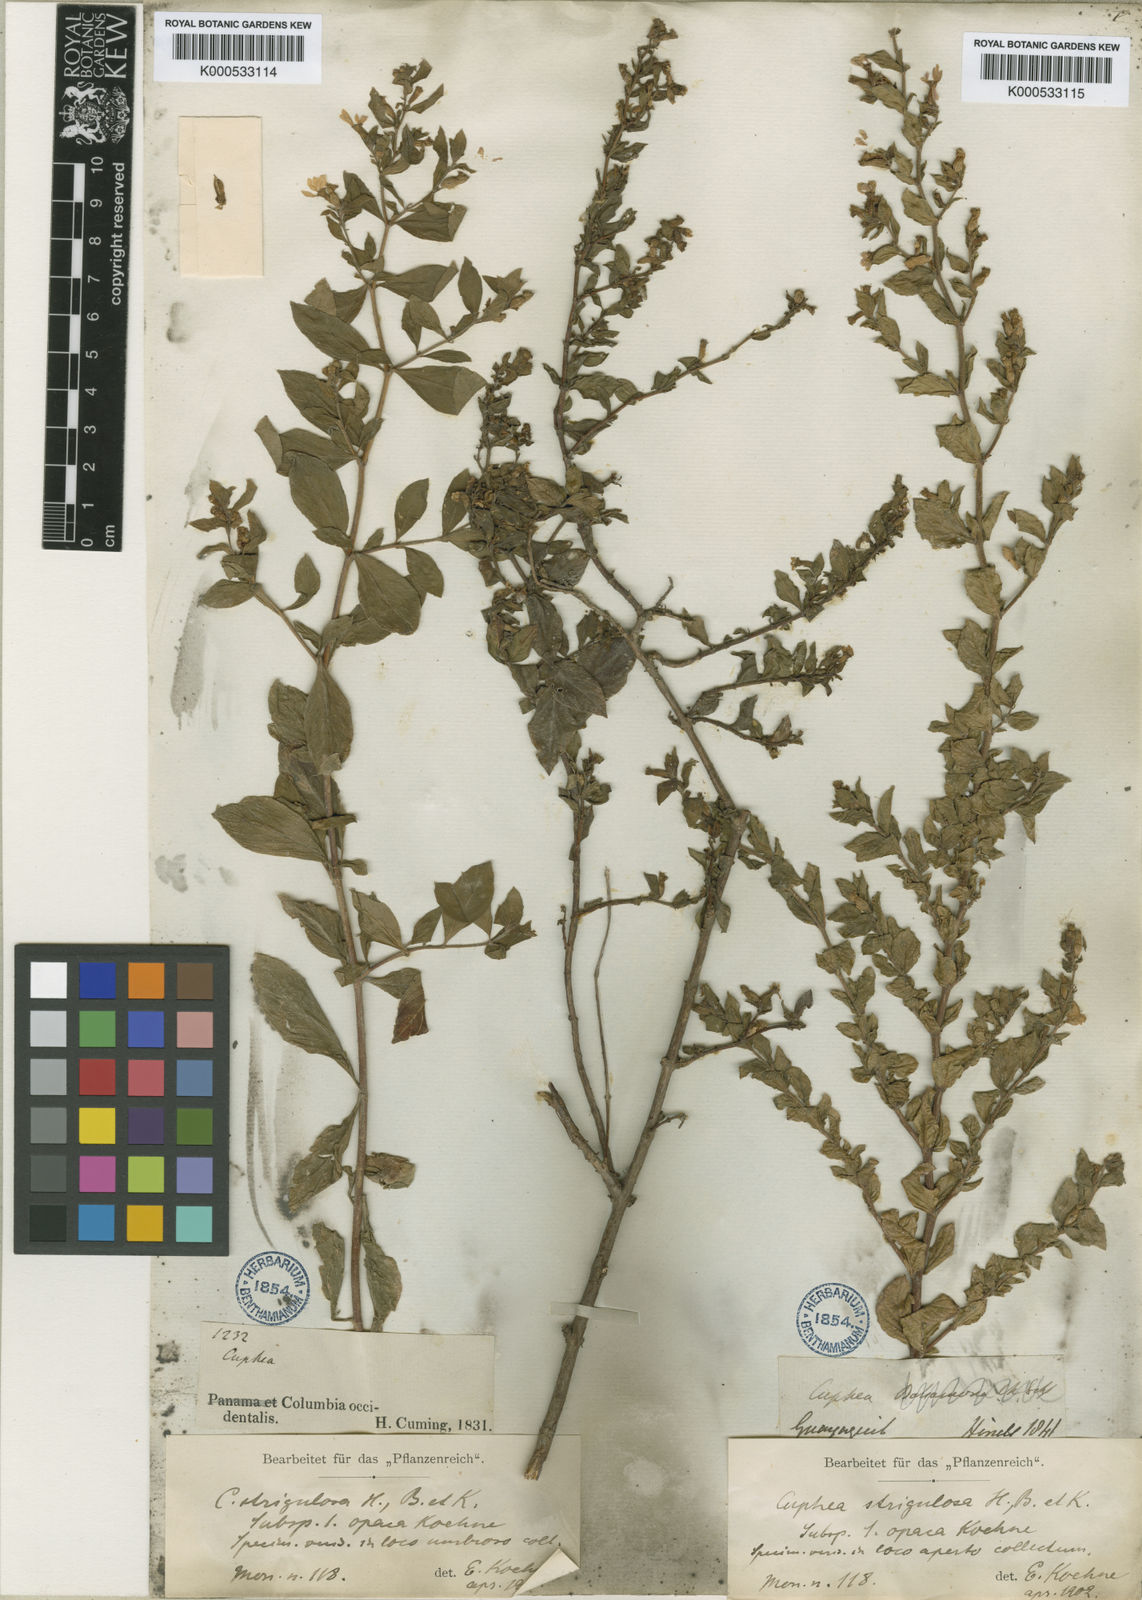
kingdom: Plantae
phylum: Tracheophyta
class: Magnoliopsida
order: Myrtales
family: Lythraceae
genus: Cuphea
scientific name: Cuphea strigulosa
